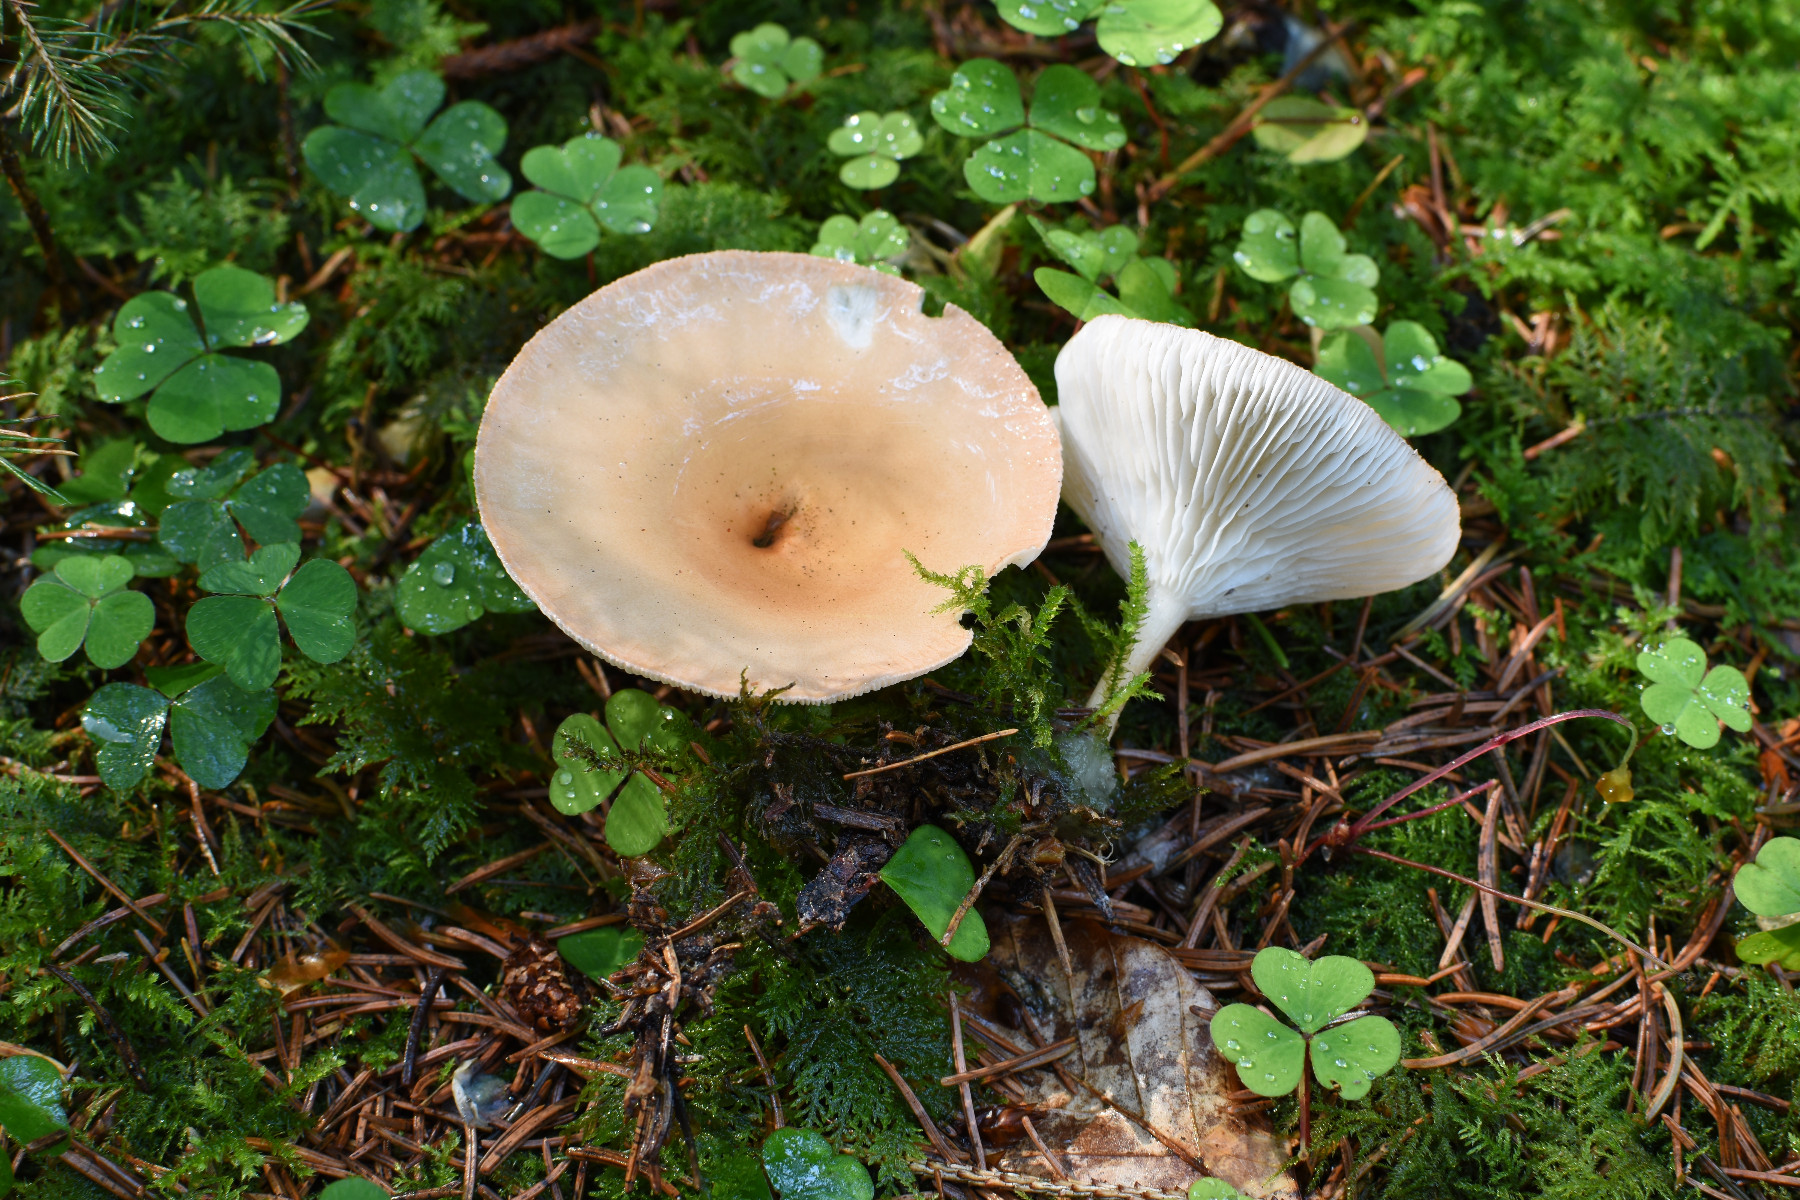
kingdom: Fungi
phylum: Basidiomycota
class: Agaricomycetes
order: Agaricales
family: Tricholomataceae
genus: Paralepista
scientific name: Paralepista flaccida
